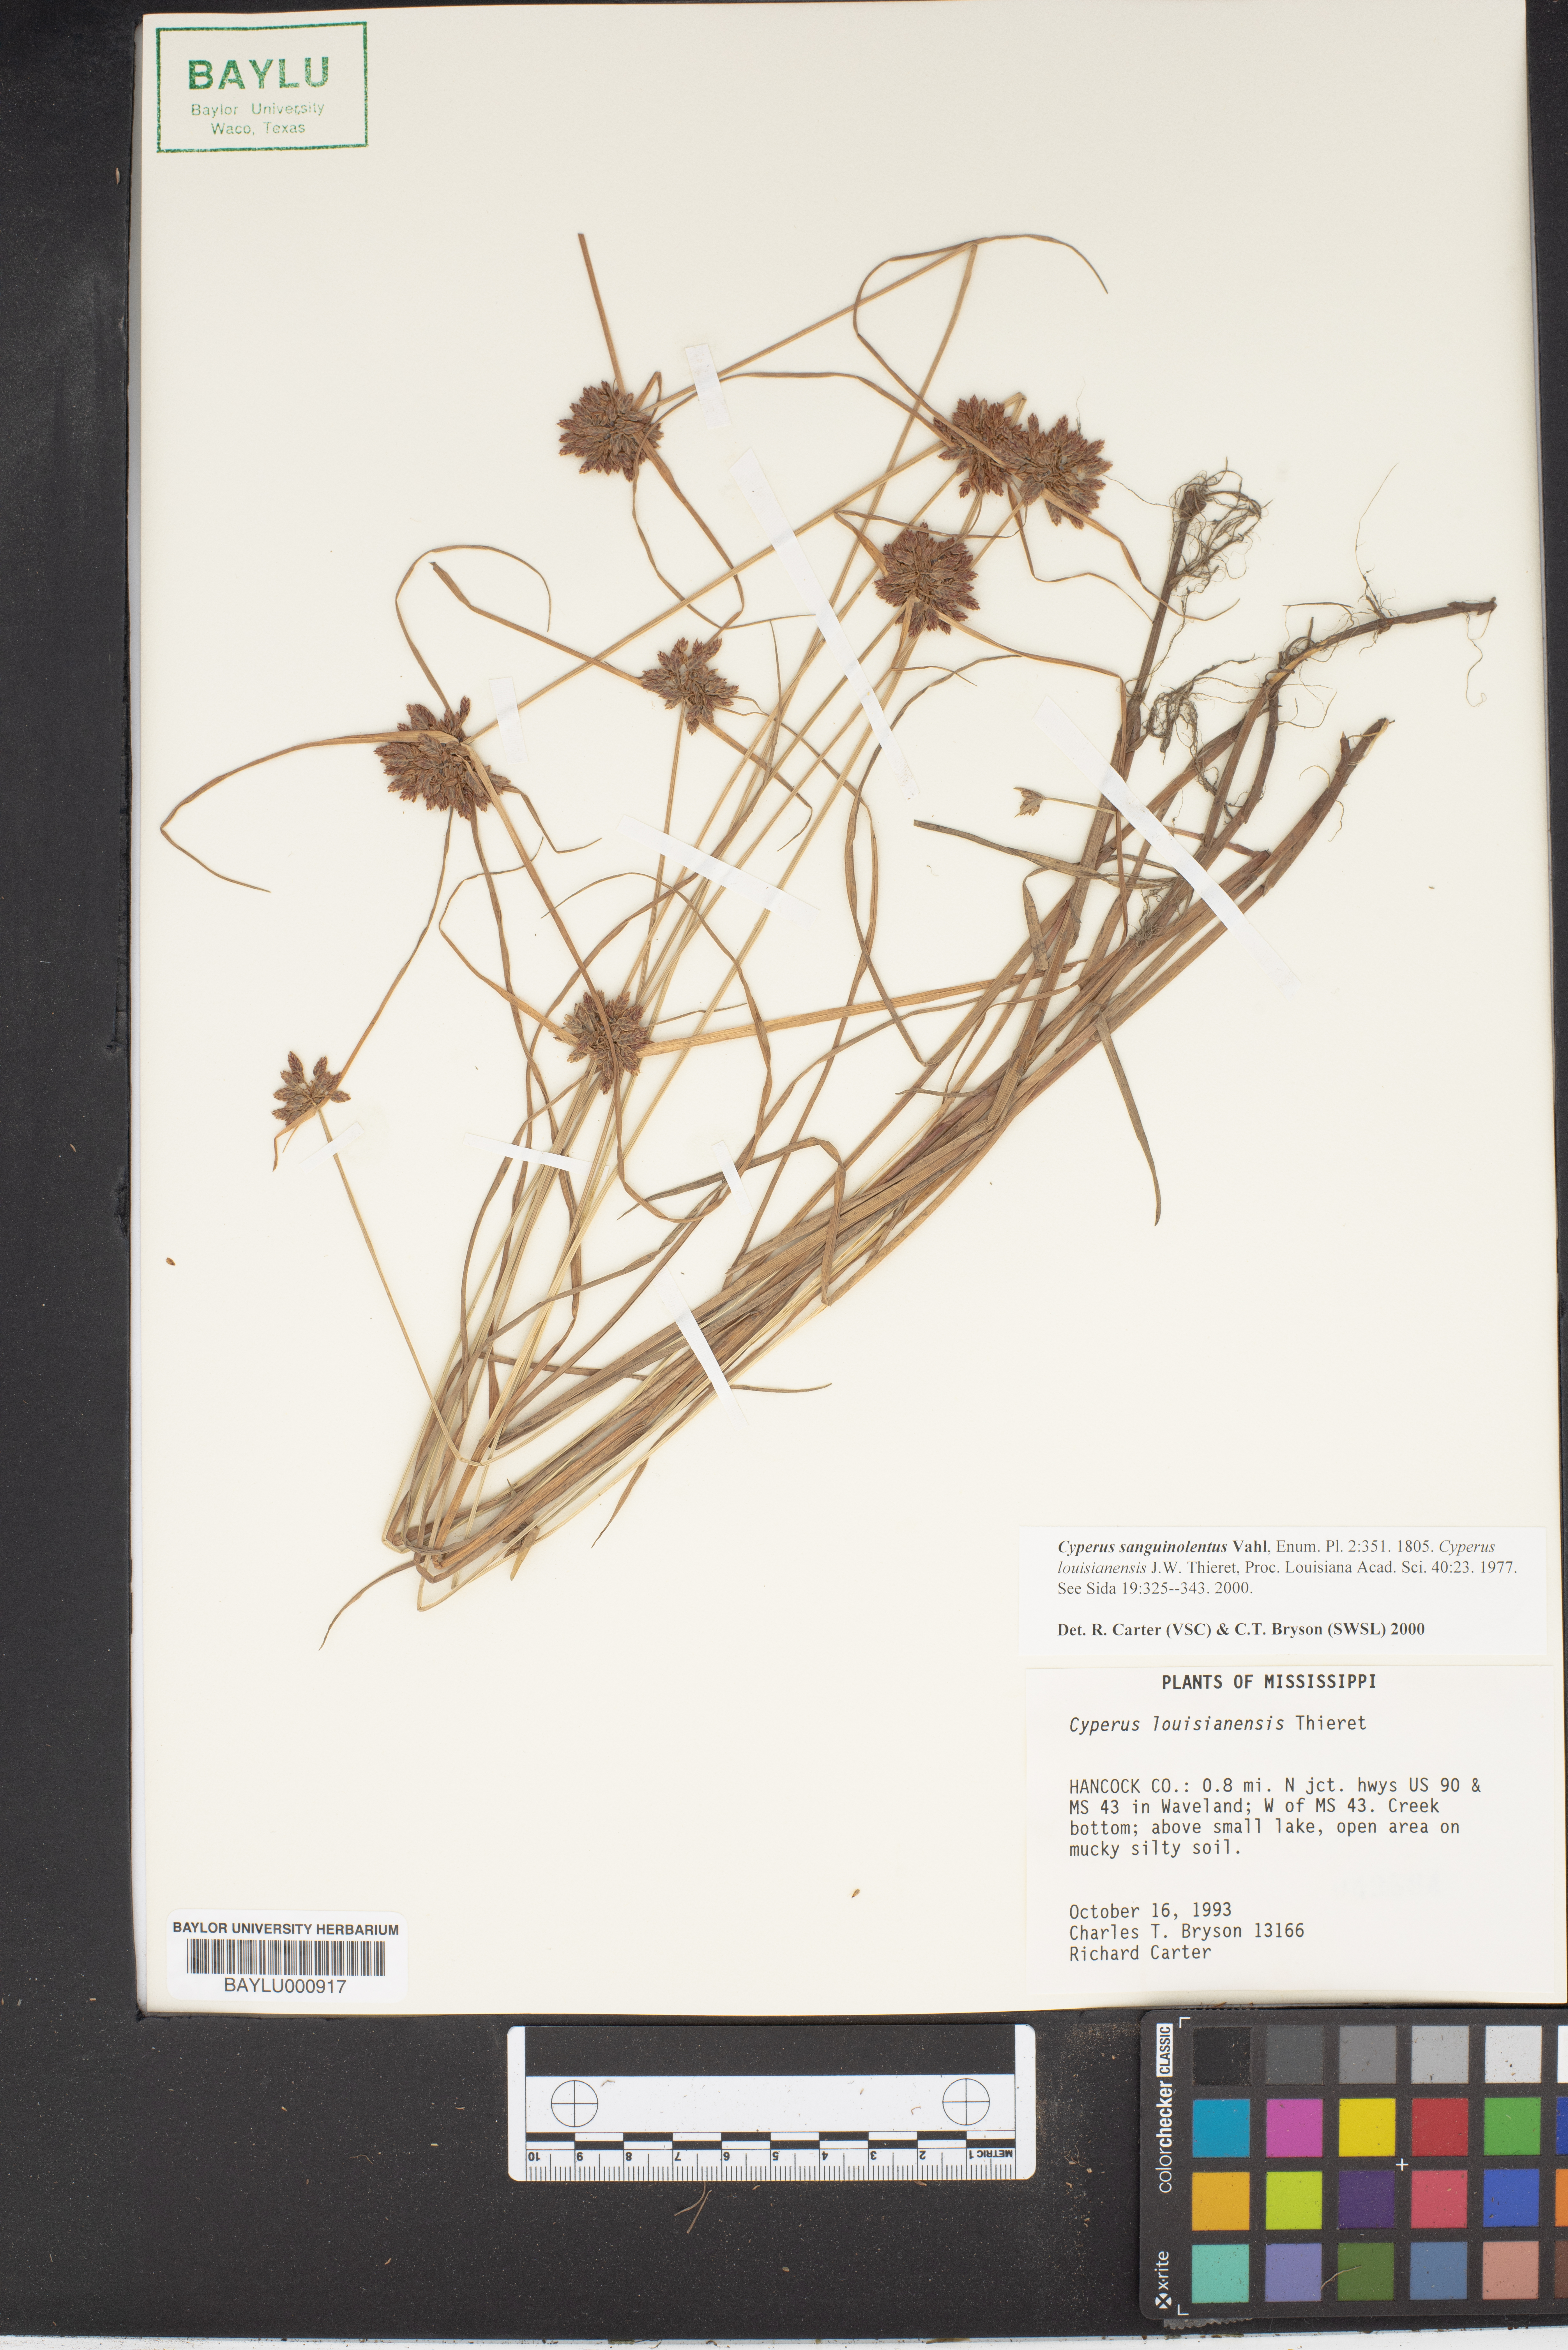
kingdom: Plantae
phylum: Tracheophyta
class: Liliopsida
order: Poales
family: Cyperaceae
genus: Cyperus
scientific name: Cyperus sanguinolentus
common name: Purpleglume flatsedge
